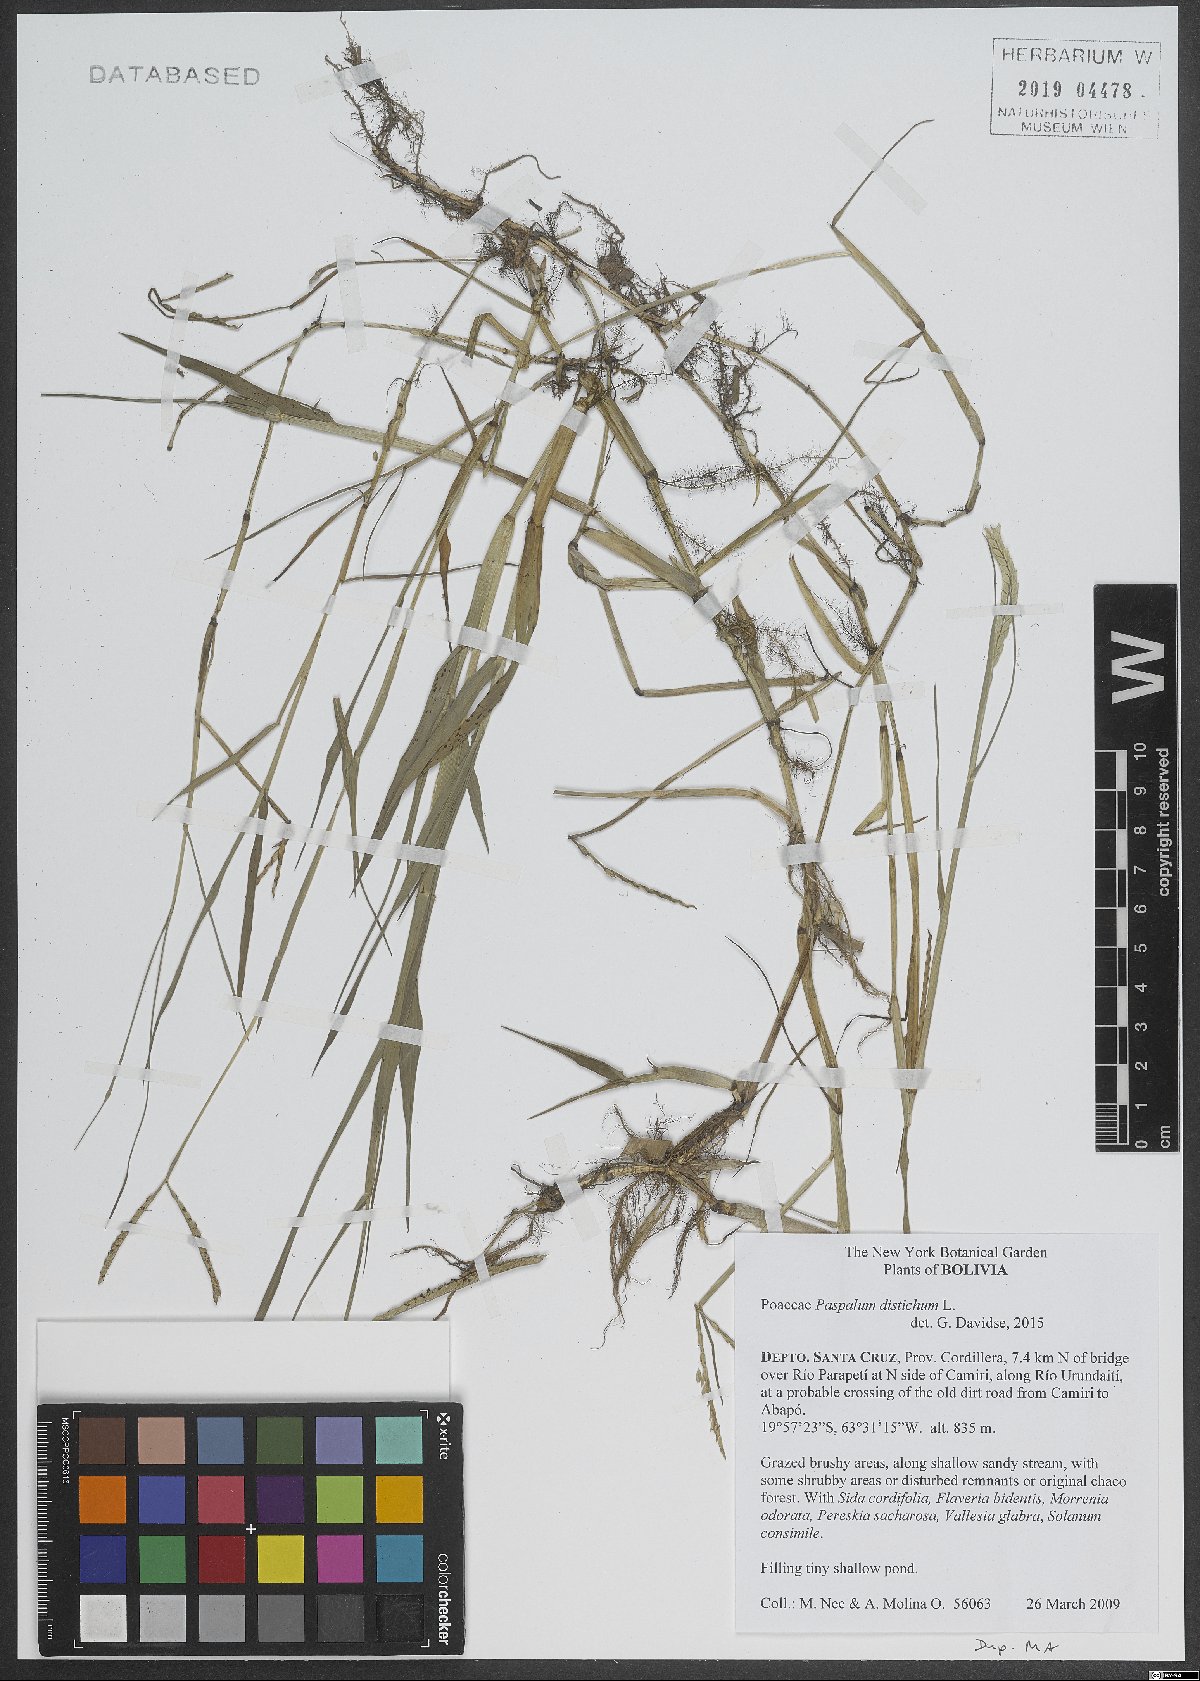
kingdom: Plantae
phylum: Tracheophyta
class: Liliopsida
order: Poales
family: Poaceae
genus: Paspalum
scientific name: Paspalum distichum
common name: Knotgrass
